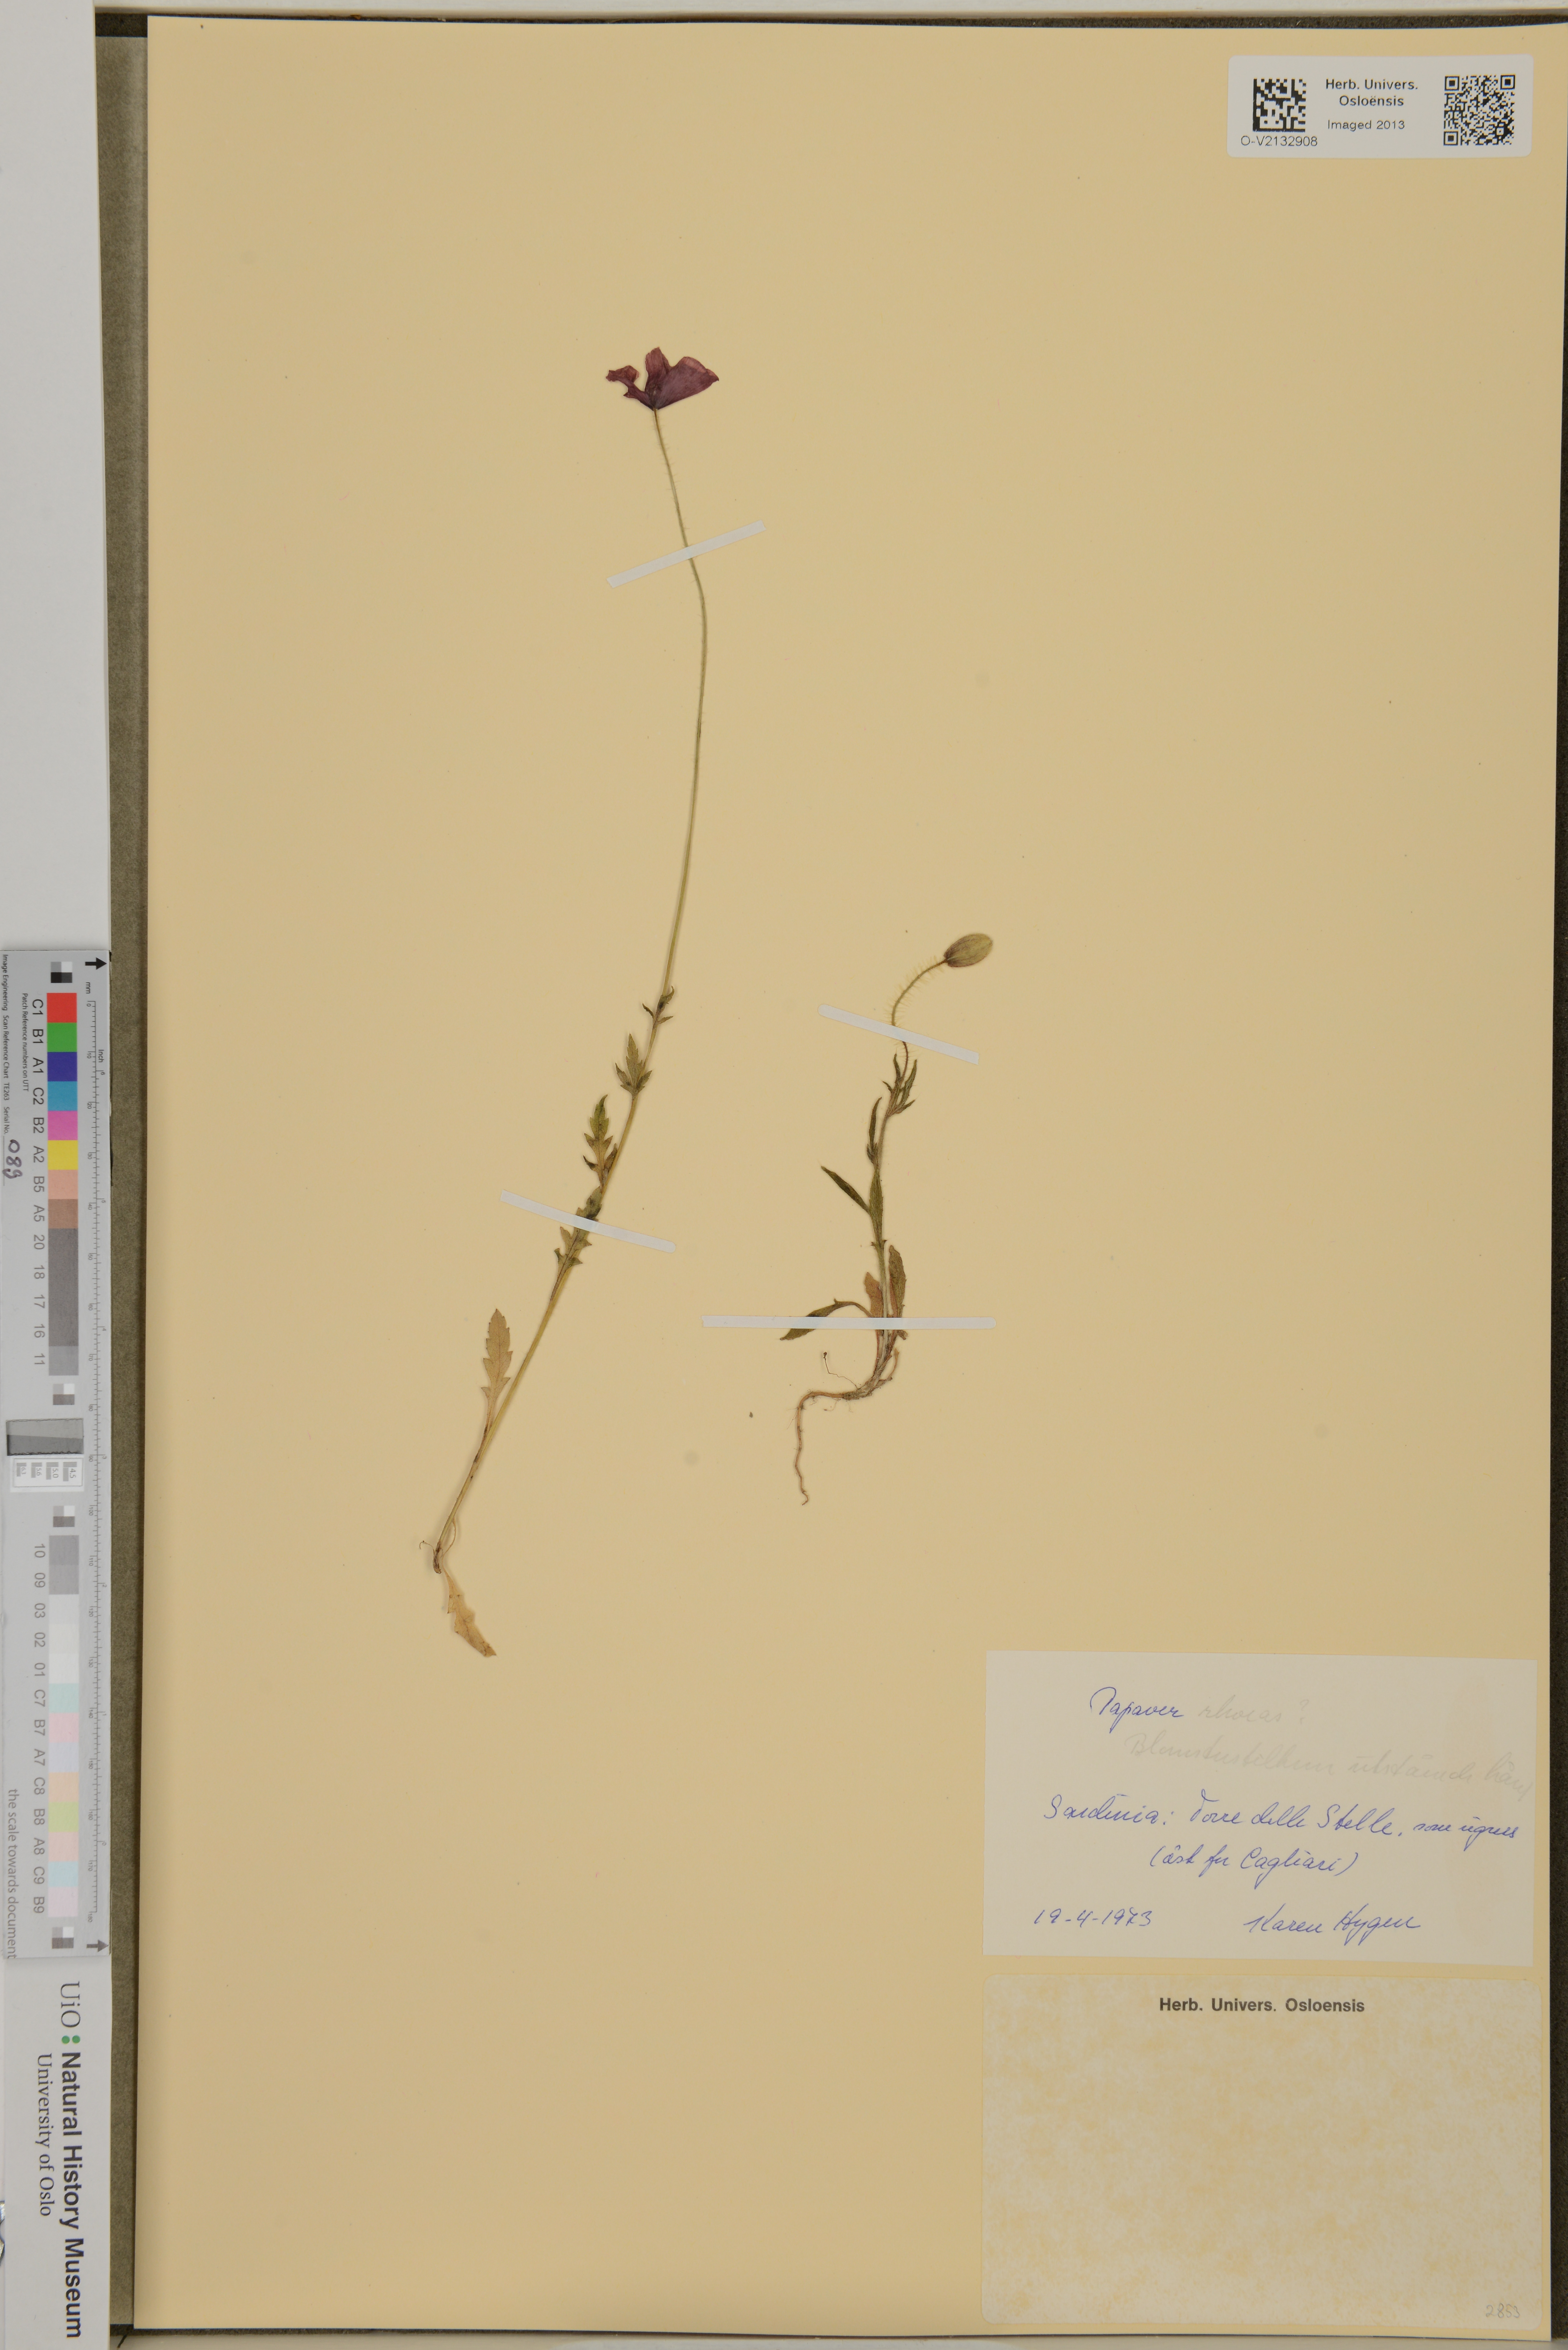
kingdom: Plantae
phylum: Tracheophyta
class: Magnoliopsida
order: Ranunculales
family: Papaveraceae
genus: Papaver
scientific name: Papaver rhoeas
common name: Corn poppy
